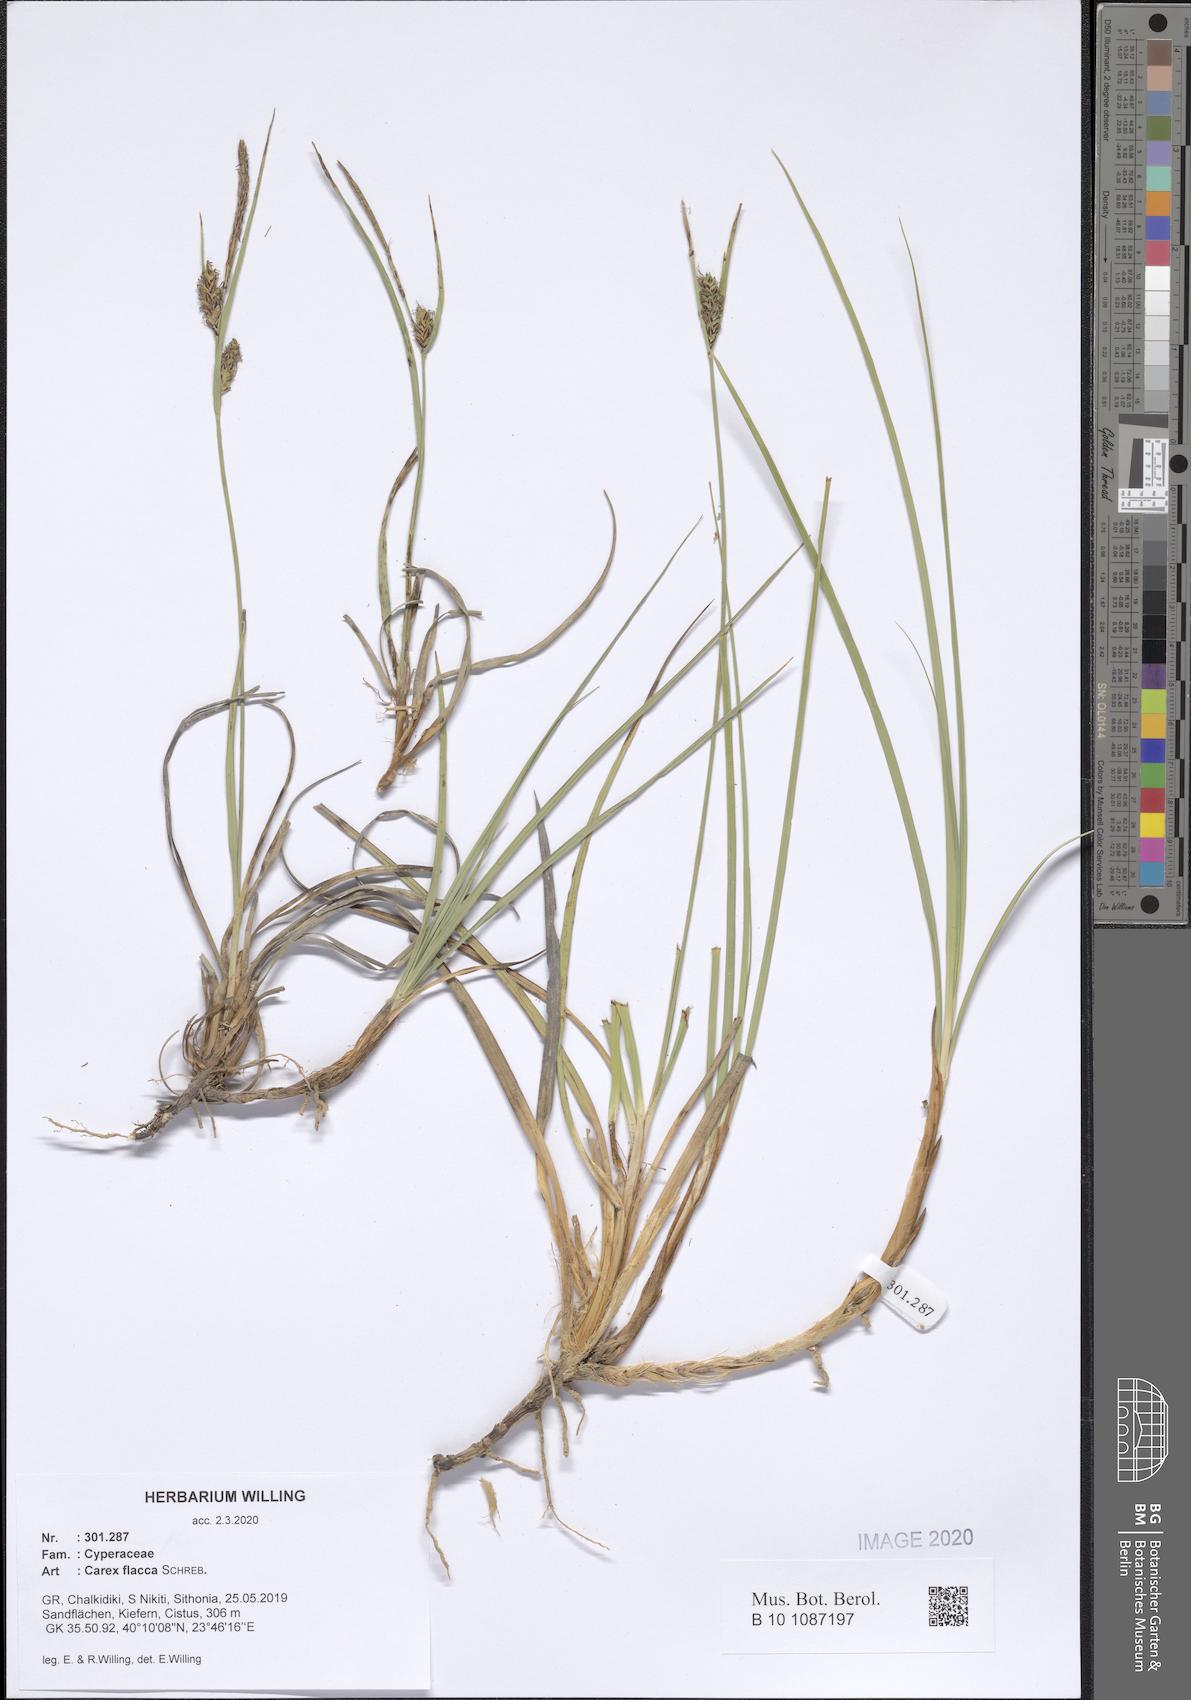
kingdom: Plantae
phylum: Tracheophyta
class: Liliopsida
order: Poales
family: Cyperaceae
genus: Carex
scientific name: Carex flacca
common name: Glaucous sedge
